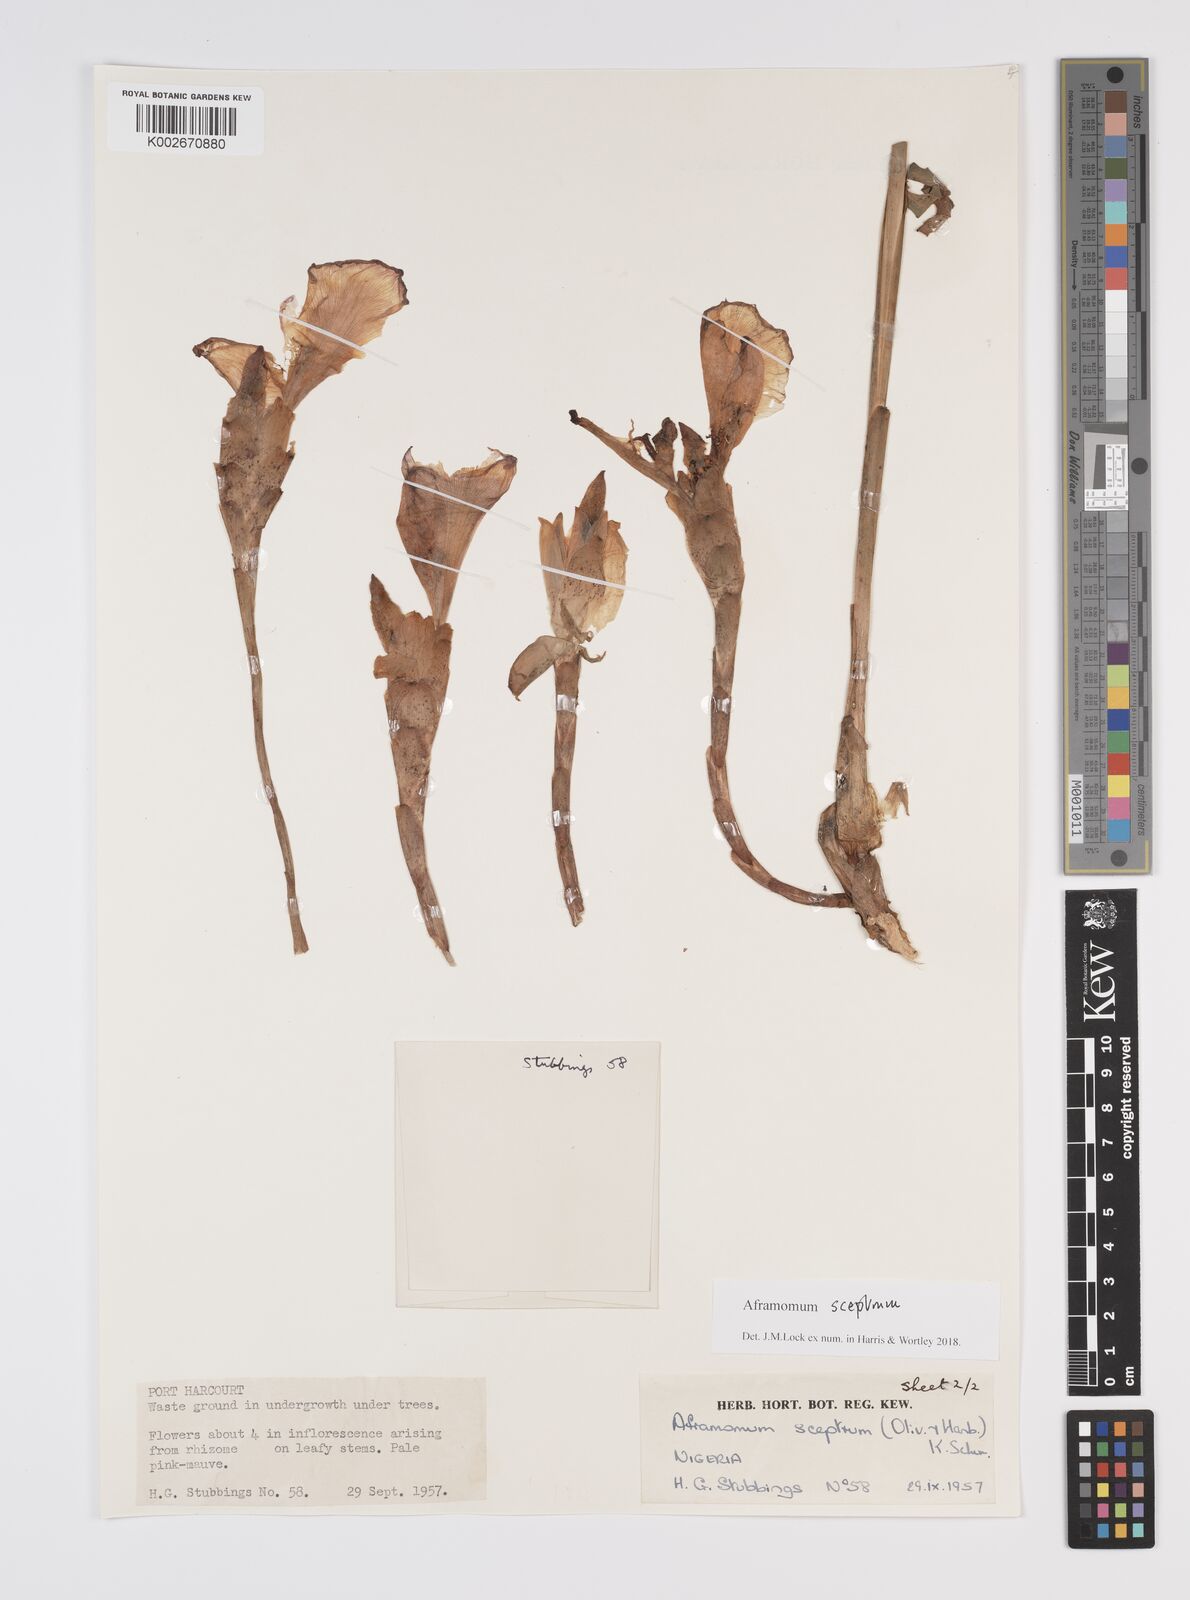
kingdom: Plantae
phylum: Tracheophyta
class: Liliopsida
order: Zingiberales
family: Zingiberaceae
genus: Aframomum
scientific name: Aframomum cereum
